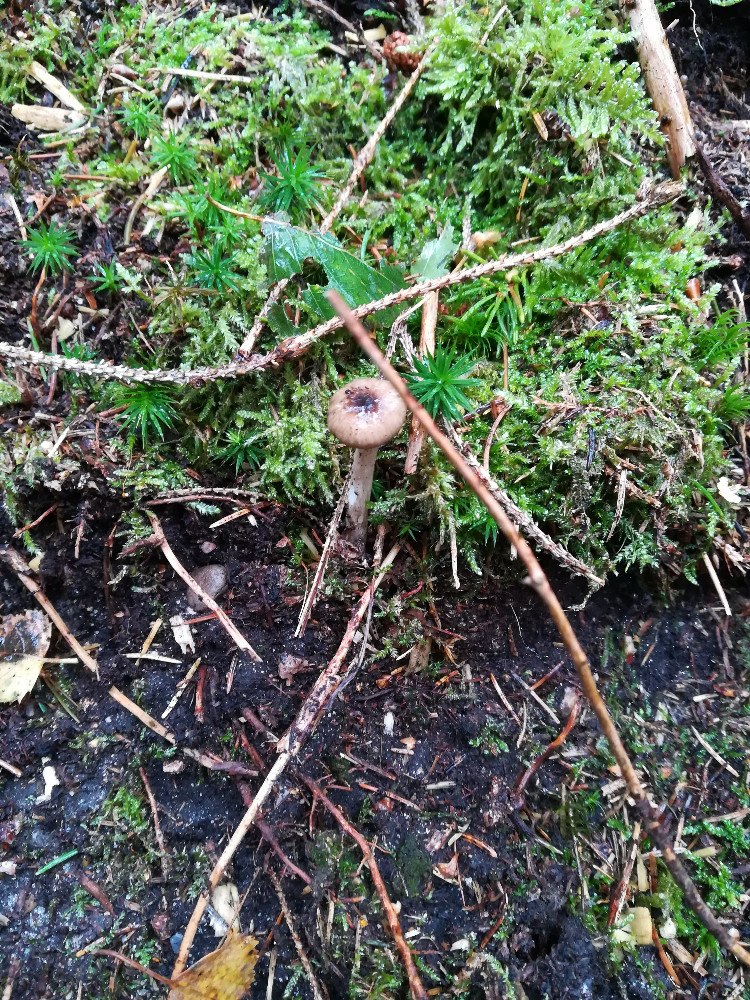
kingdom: Fungi
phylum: Basidiomycota
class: Agaricomycetes
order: Agaricales
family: Hygrophoraceae
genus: Hygrophorus
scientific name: Hygrophorus olivaceoalbus
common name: hvidbrun sneglehat
